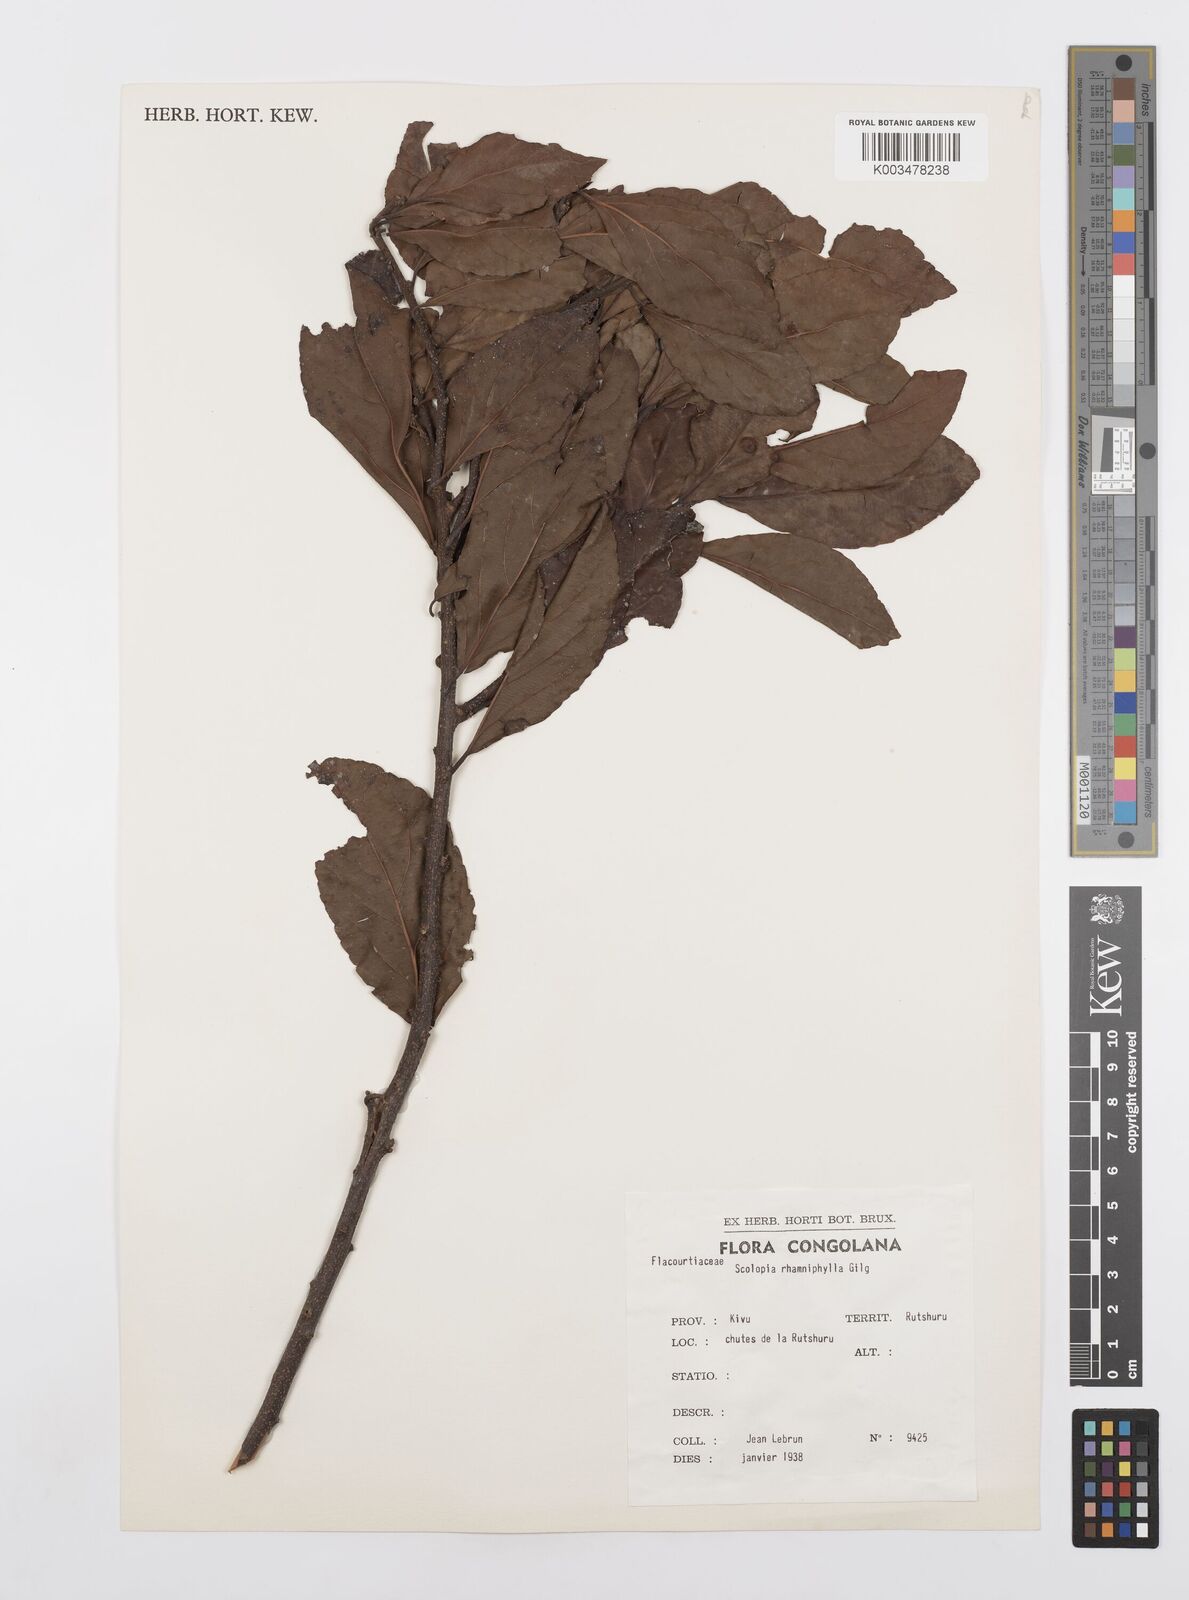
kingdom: Plantae
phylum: Tracheophyta
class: Magnoliopsida
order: Malpighiales
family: Salicaceae
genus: Scolopia
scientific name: Scolopia rhamniphylla
